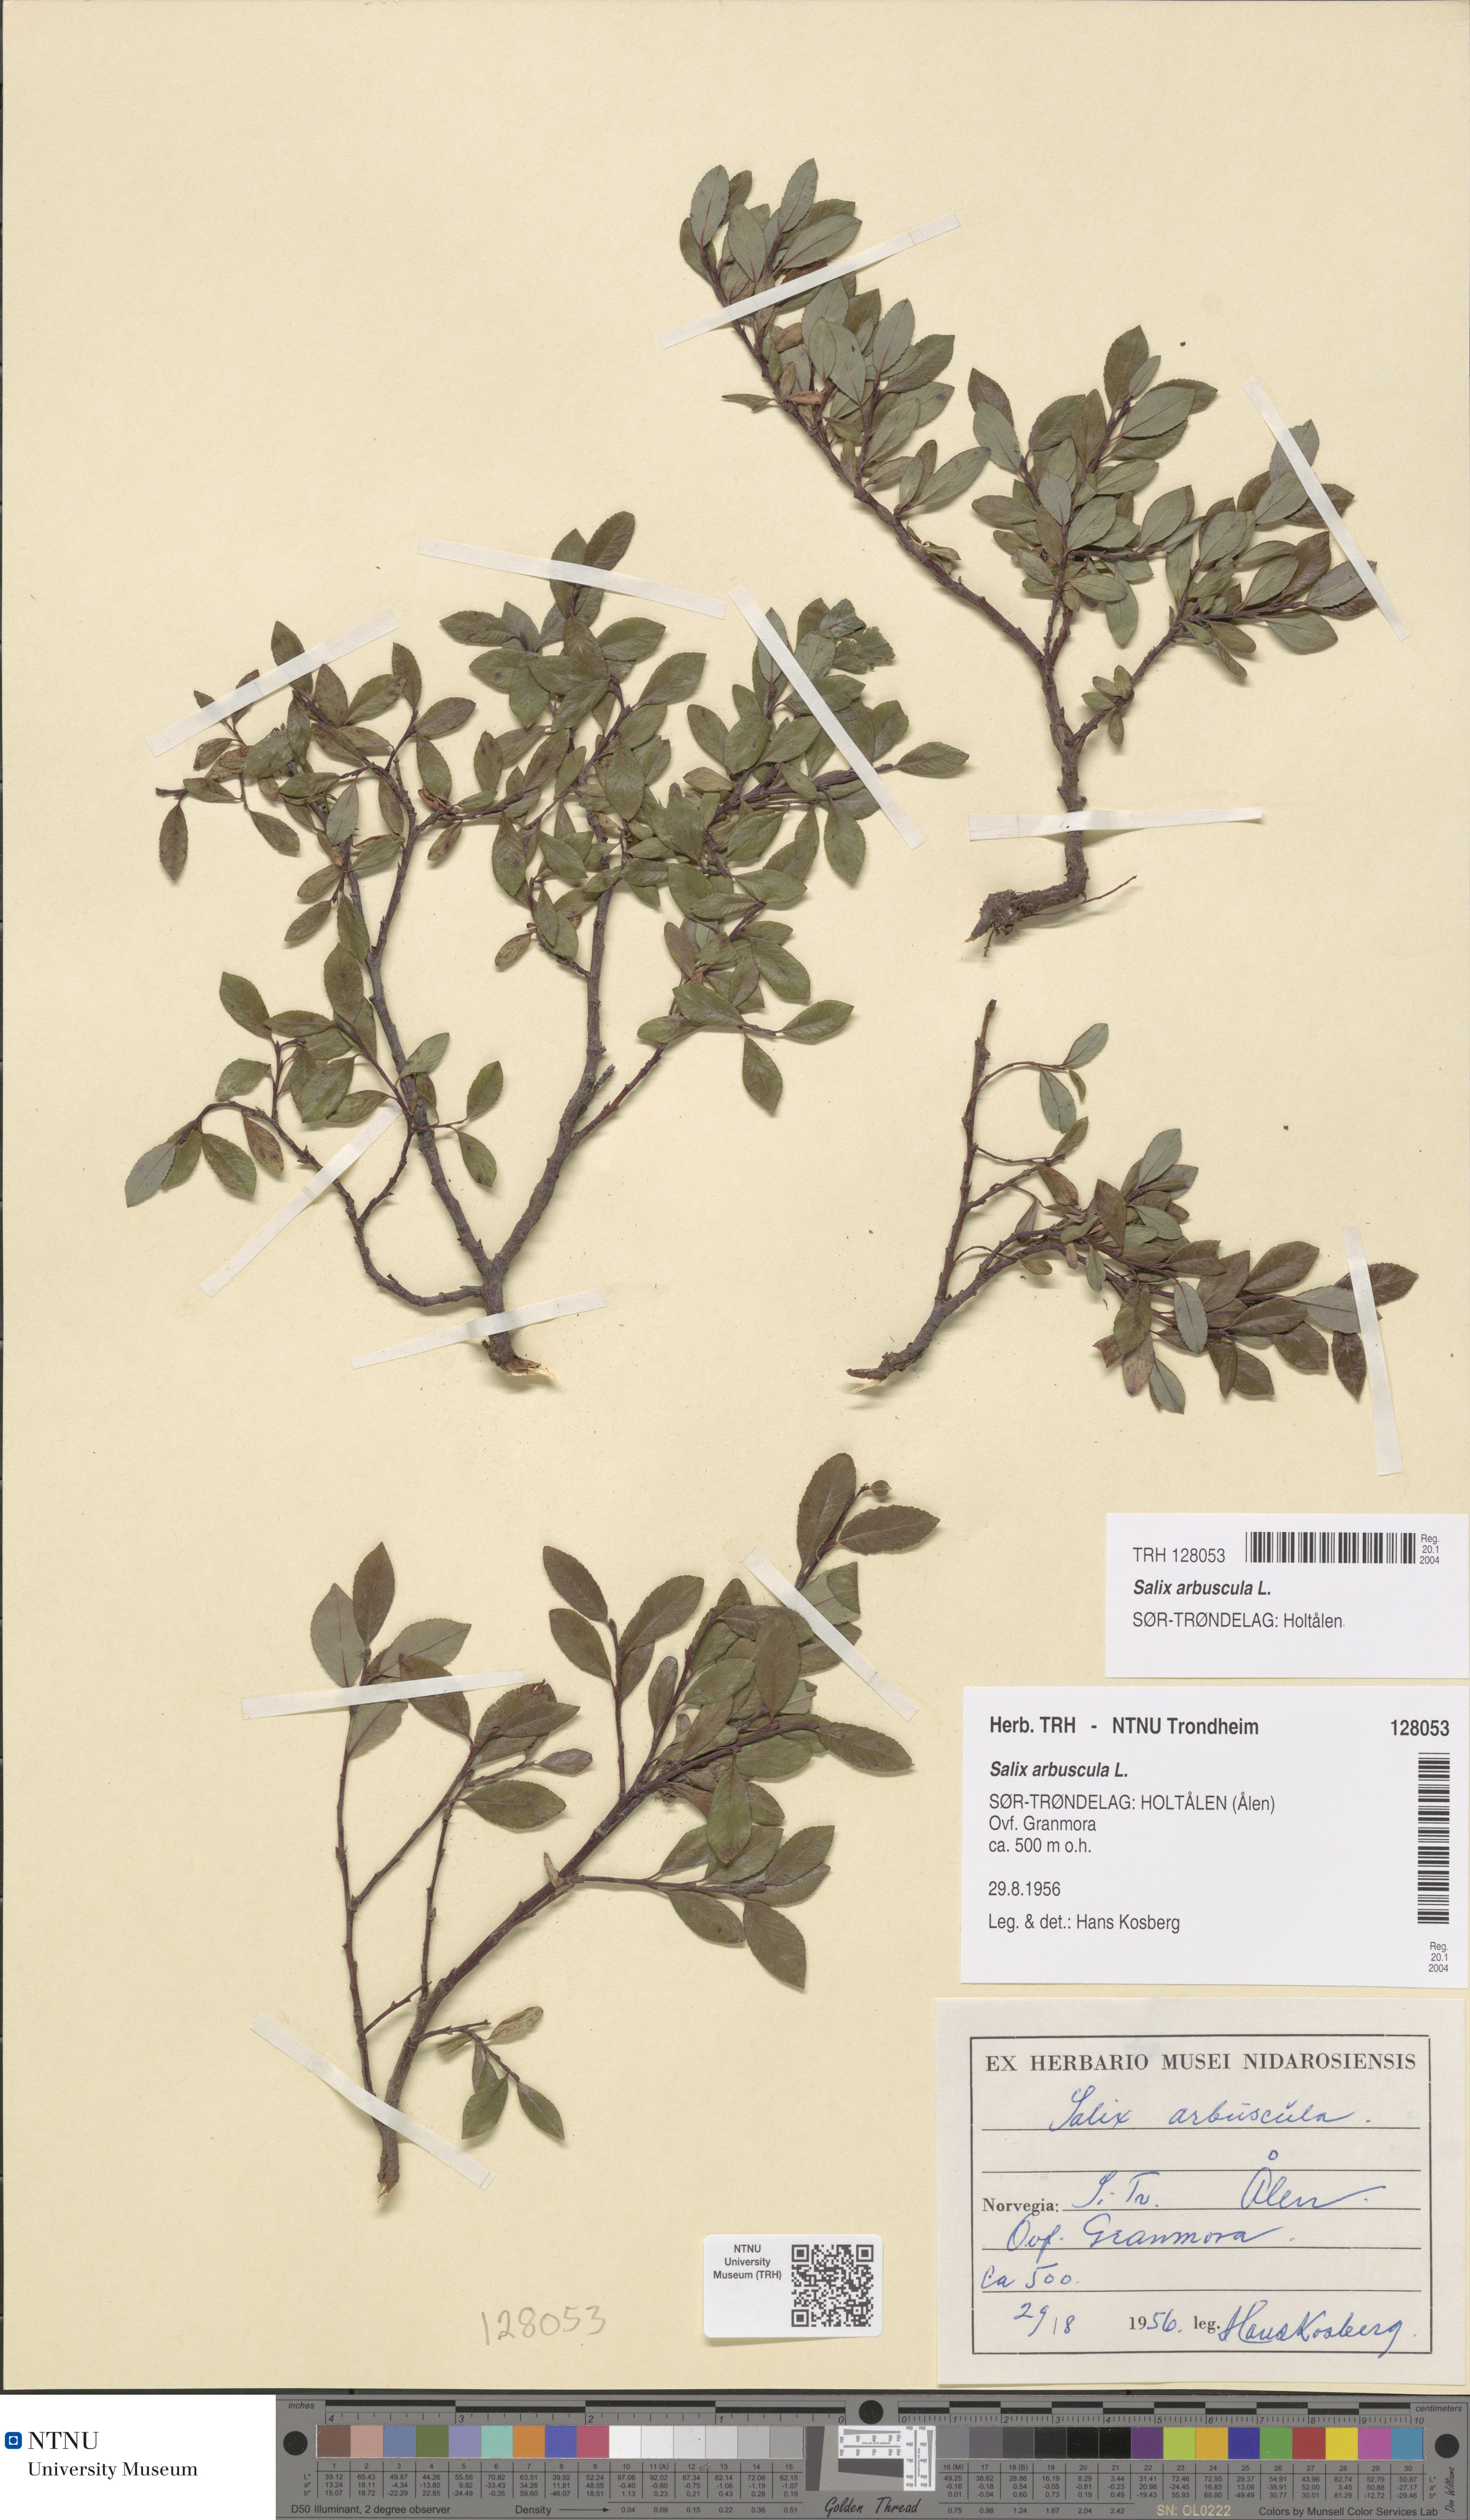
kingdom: Plantae
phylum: Tracheophyta
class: Magnoliopsida
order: Malpighiales
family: Salicaceae
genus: Salix
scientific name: Salix arbuscula
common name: Mountain willow
